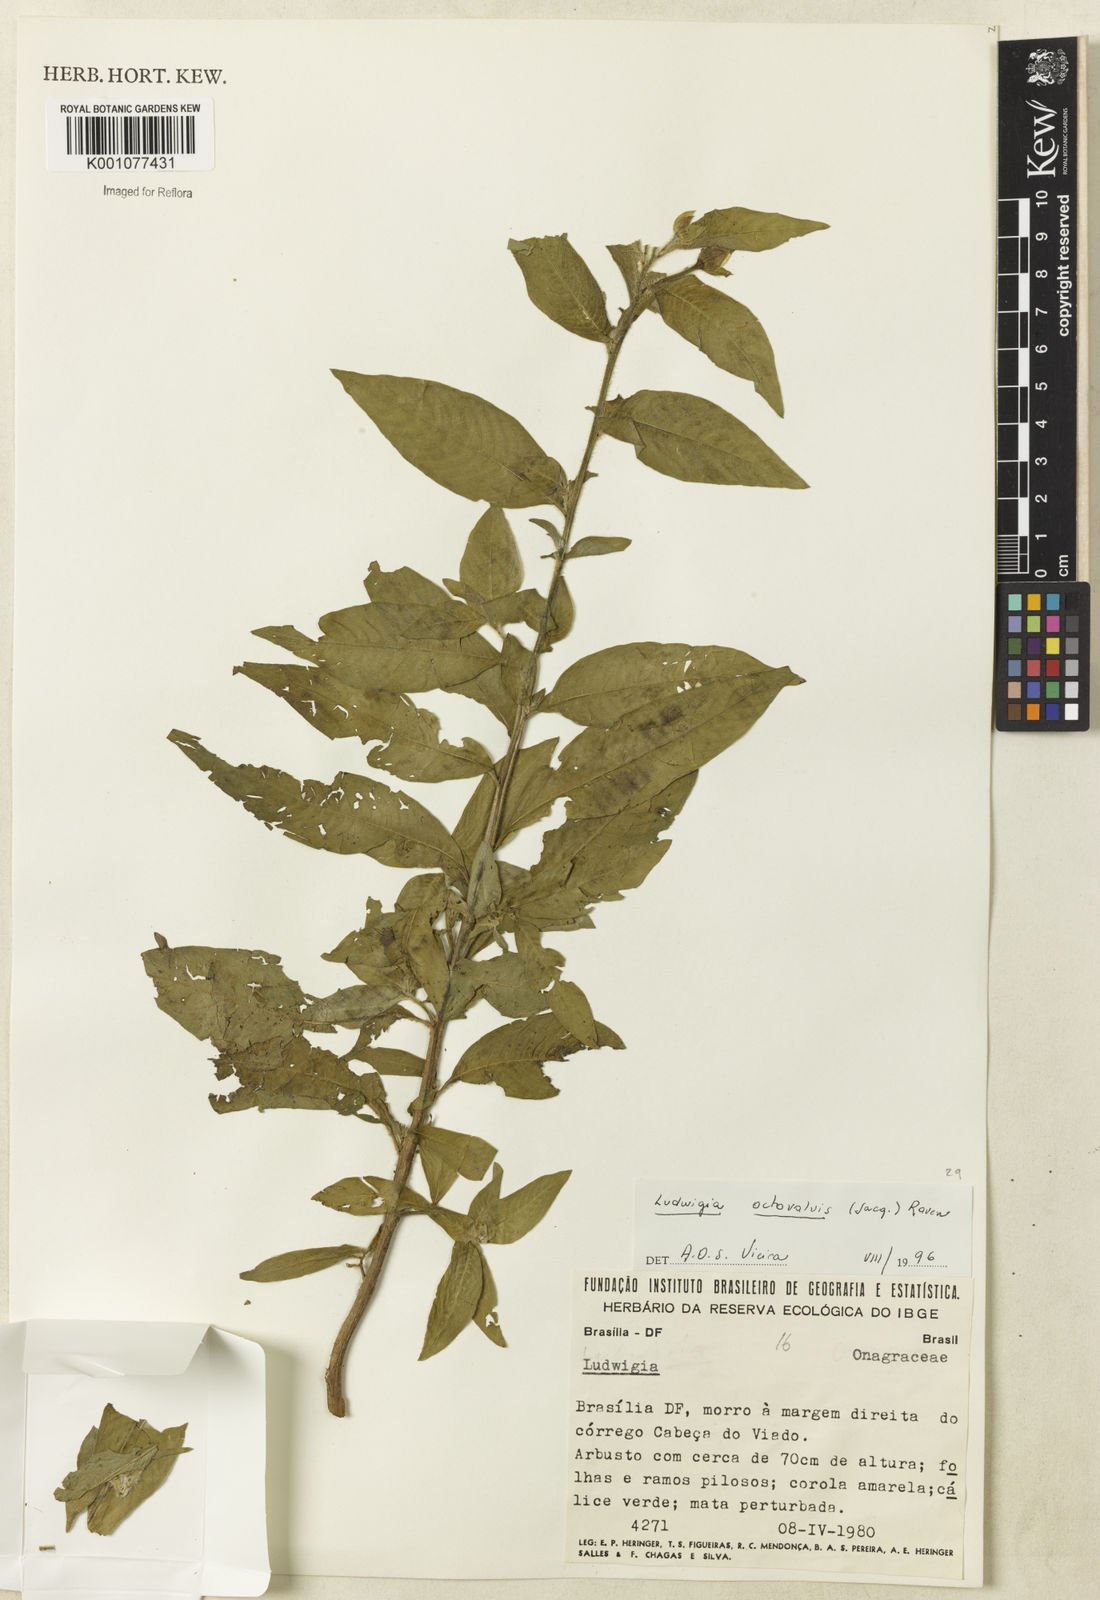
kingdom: Plantae
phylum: Tracheophyta
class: Magnoliopsida
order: Myrtales
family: Onagraceae
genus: Ludwigia
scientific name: Ludwigia octovalvis
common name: Water-primrose
